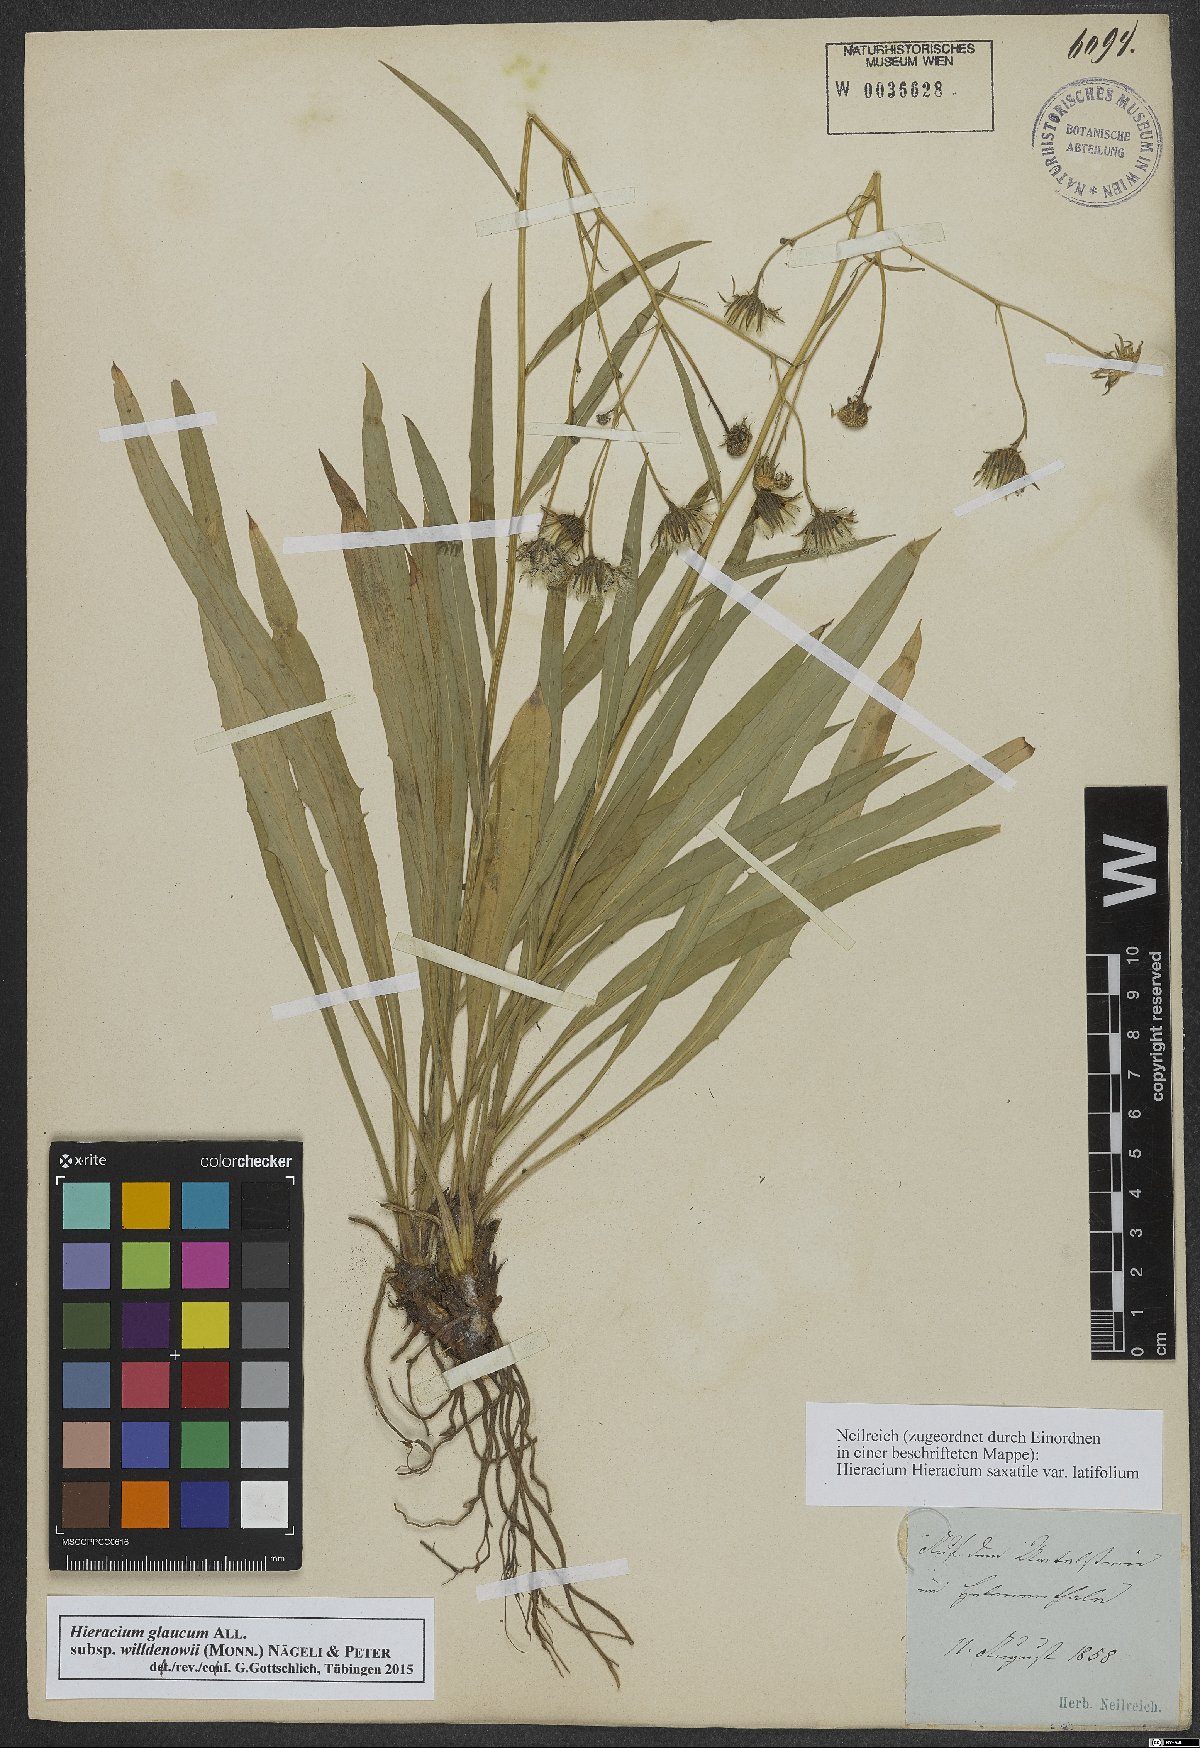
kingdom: Plantae
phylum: Tracheophyta
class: Magnoliopsida
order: Asterales
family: Asteraceae
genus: Hieracium
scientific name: Hieracium glaucum
